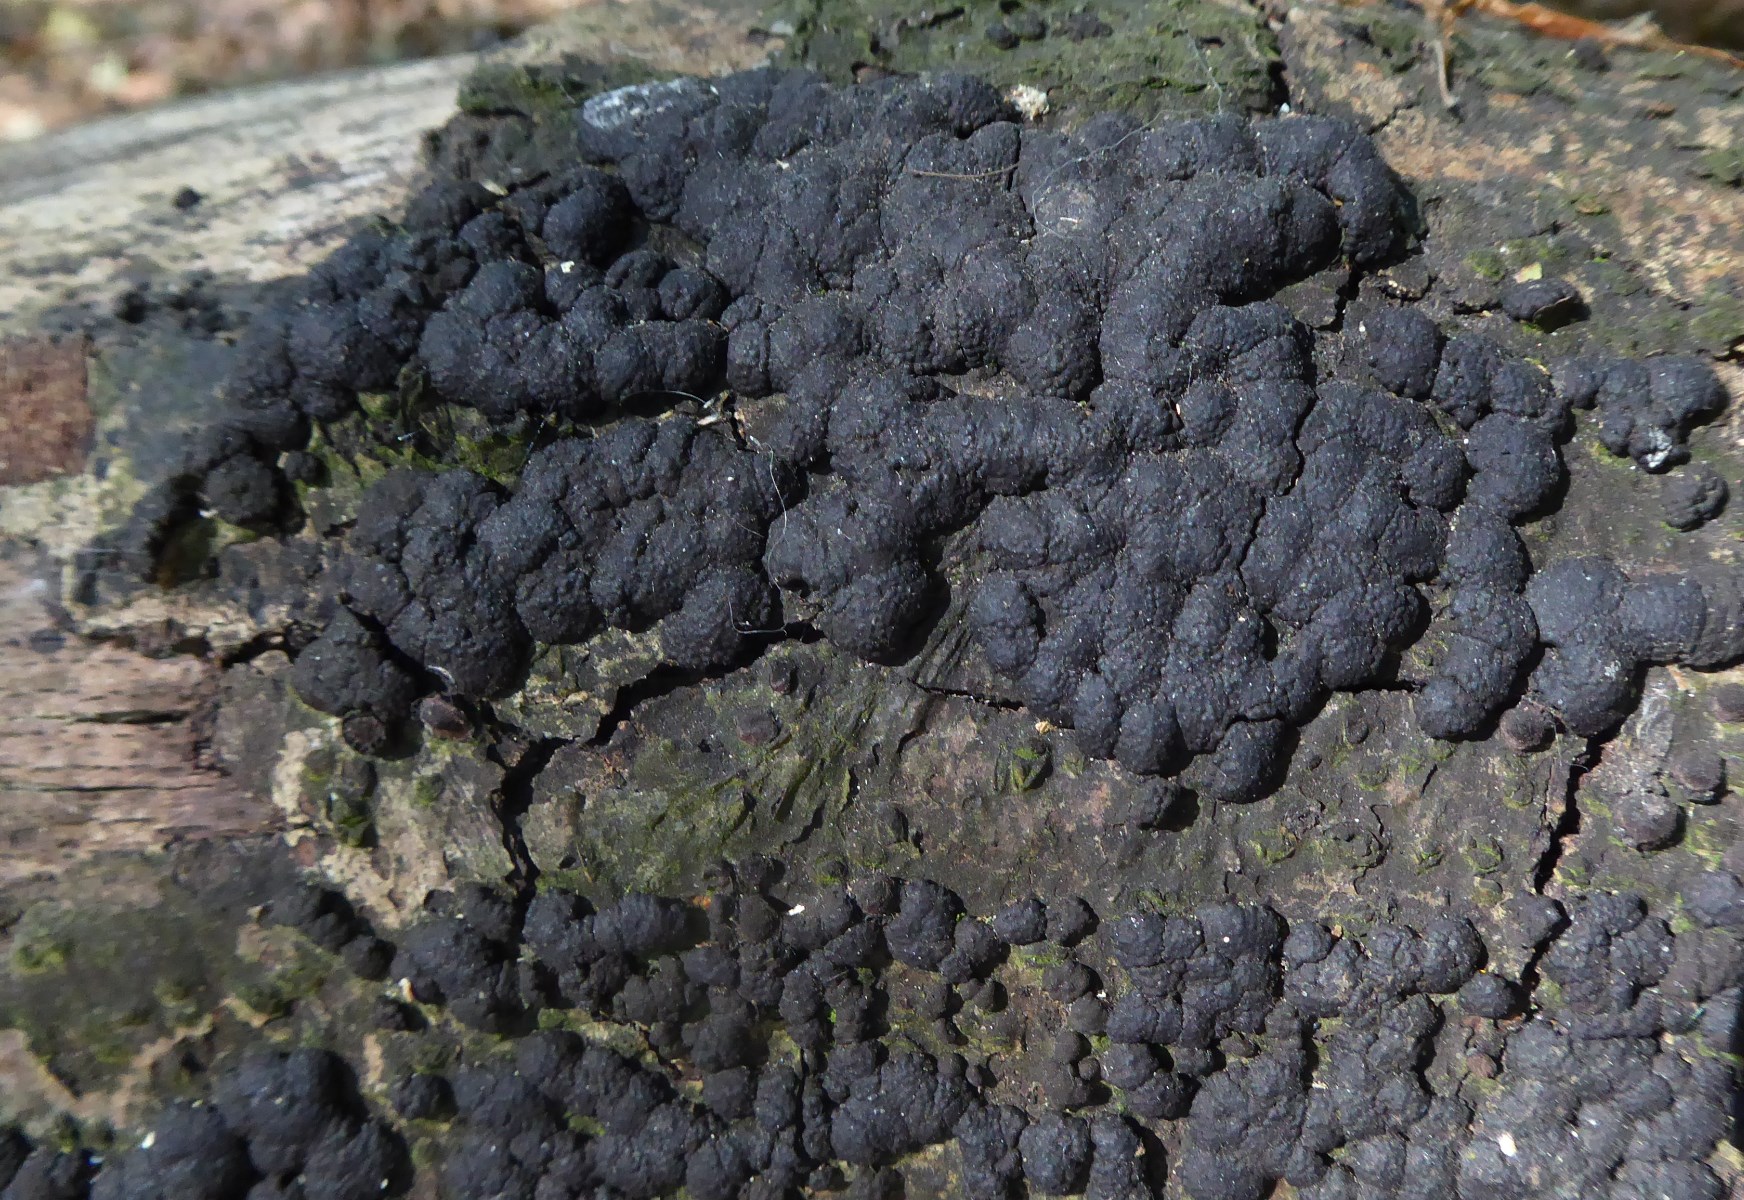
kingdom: Fungi
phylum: Ascomycota
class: Sordariomycetes
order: Xylariales
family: Hypoxylaceae
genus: Jackrogersella
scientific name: Jackrogersella cohaerens
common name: sammenflydende kulbær
